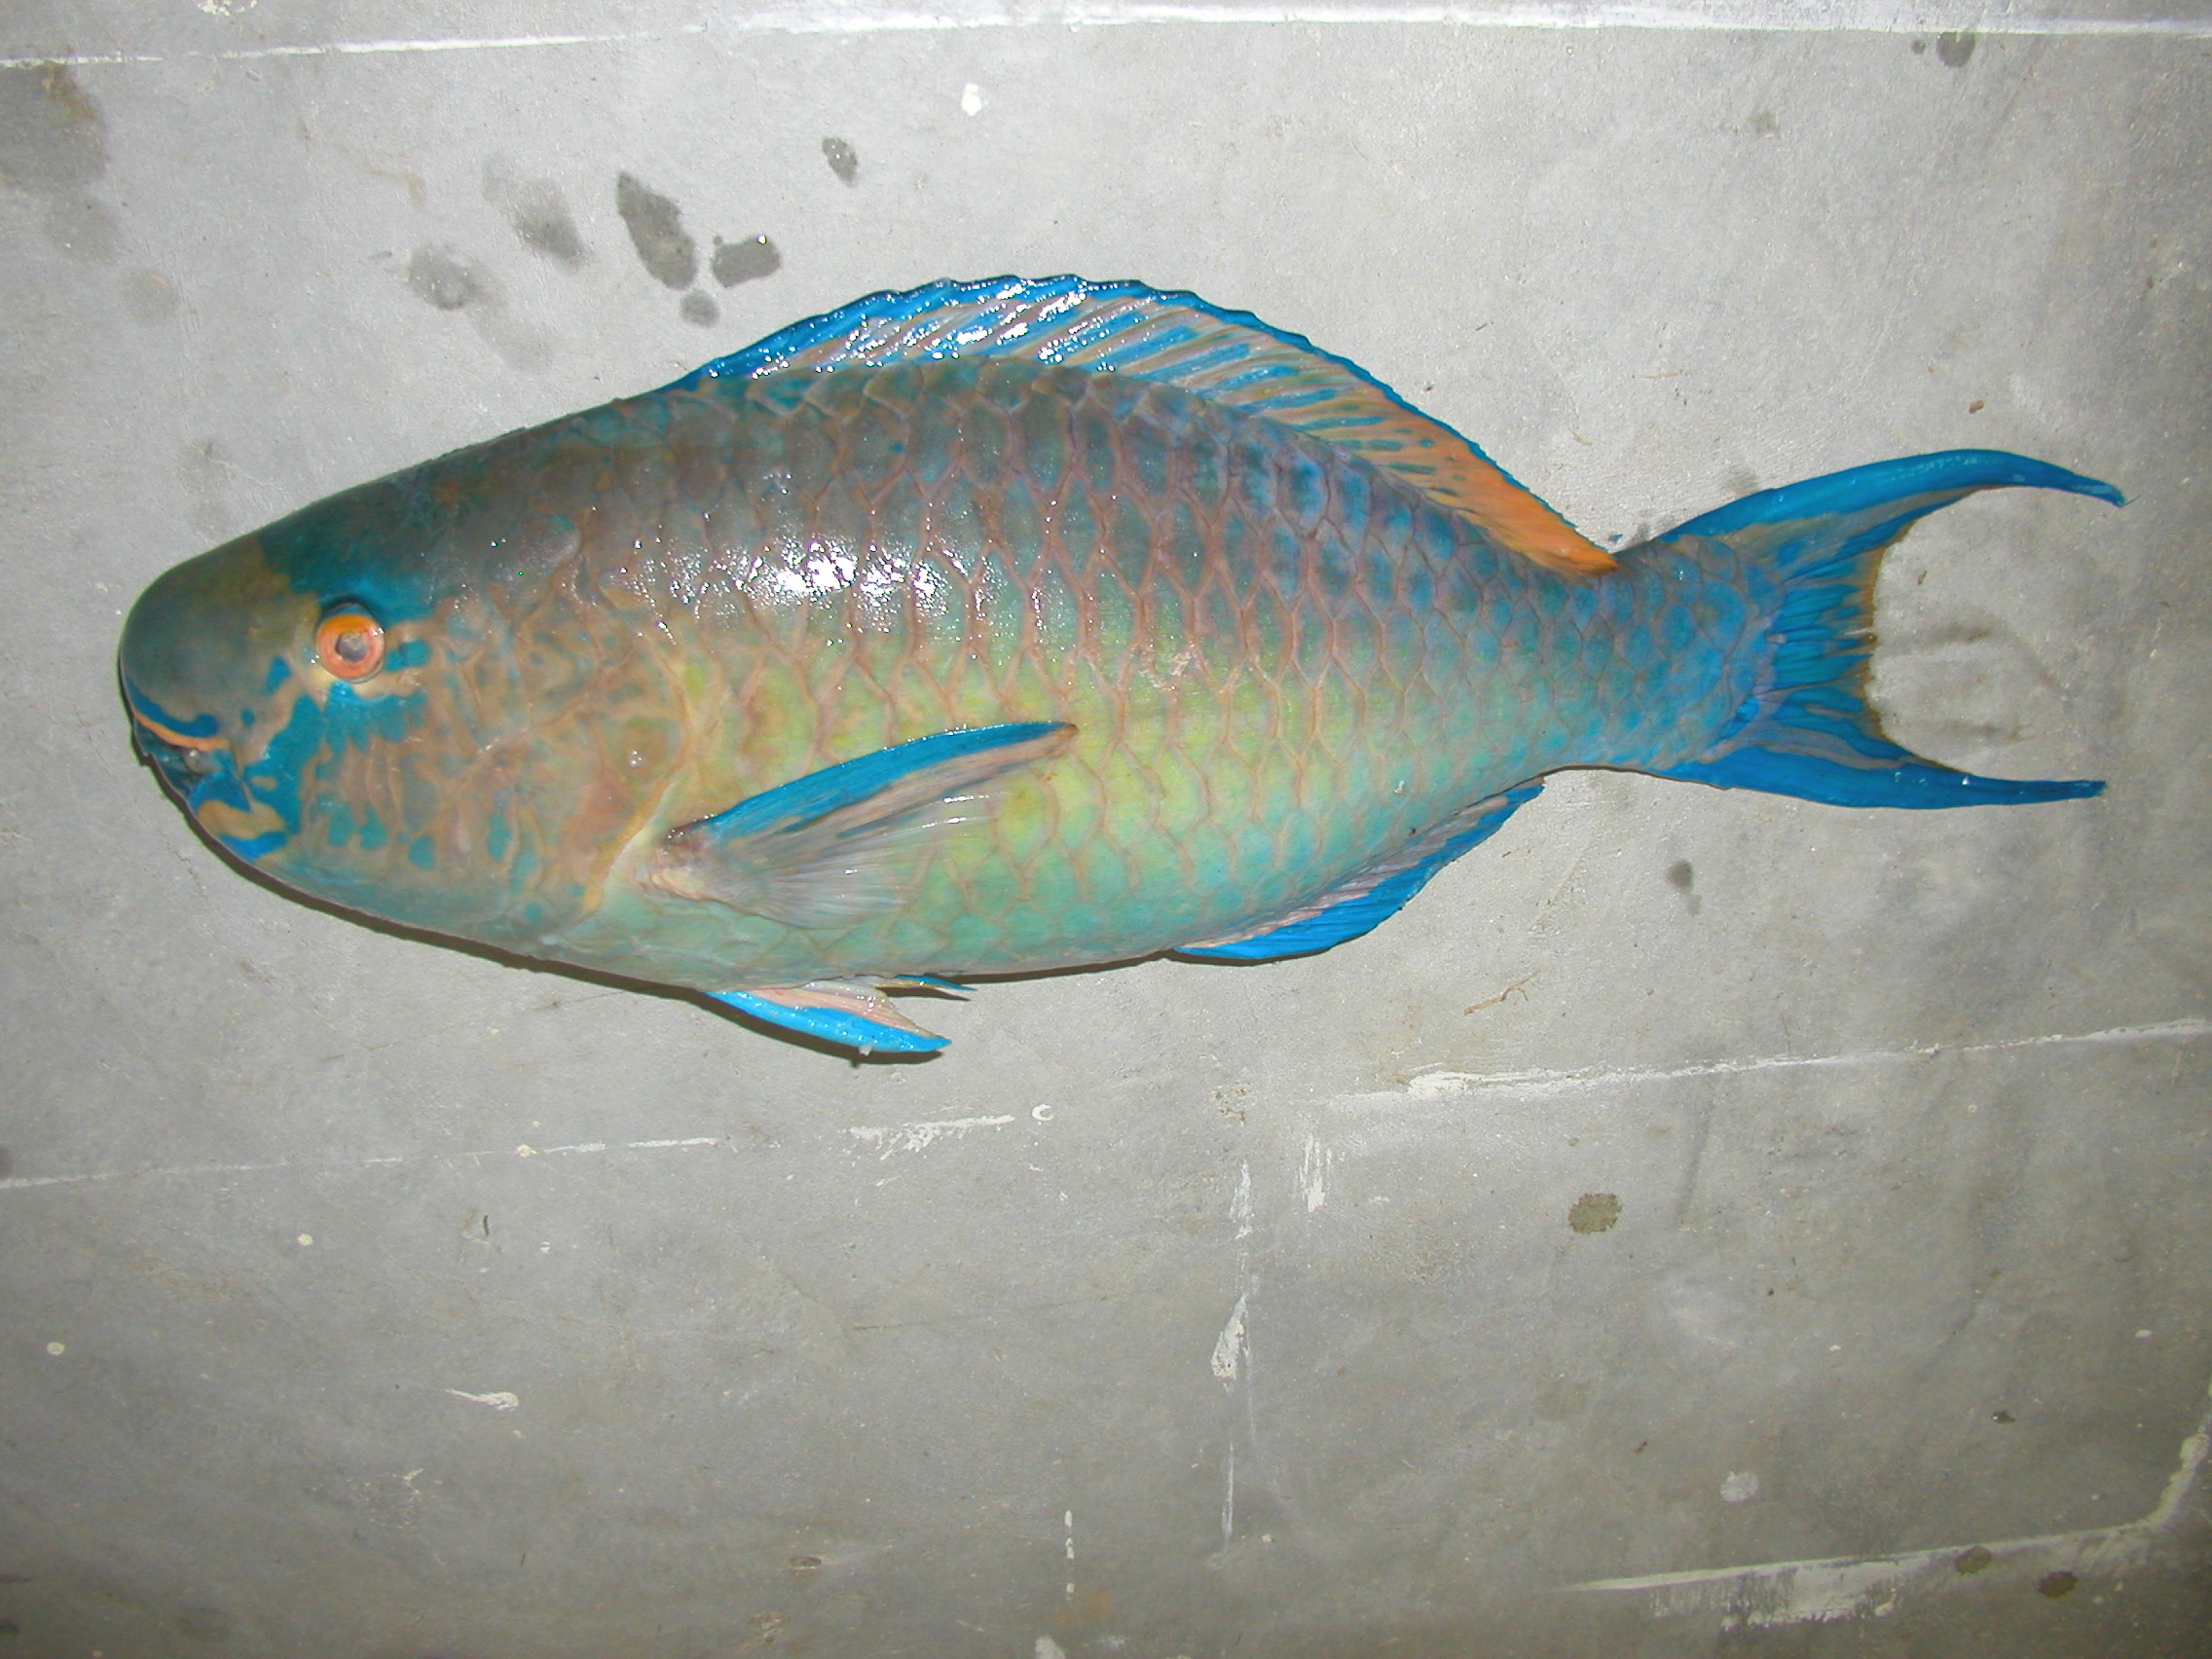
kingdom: Animalia
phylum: Chordata
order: Perciformes
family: Scaridae
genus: Scarus
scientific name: Scarus rubroviolaceus
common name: Ember parrotfish
